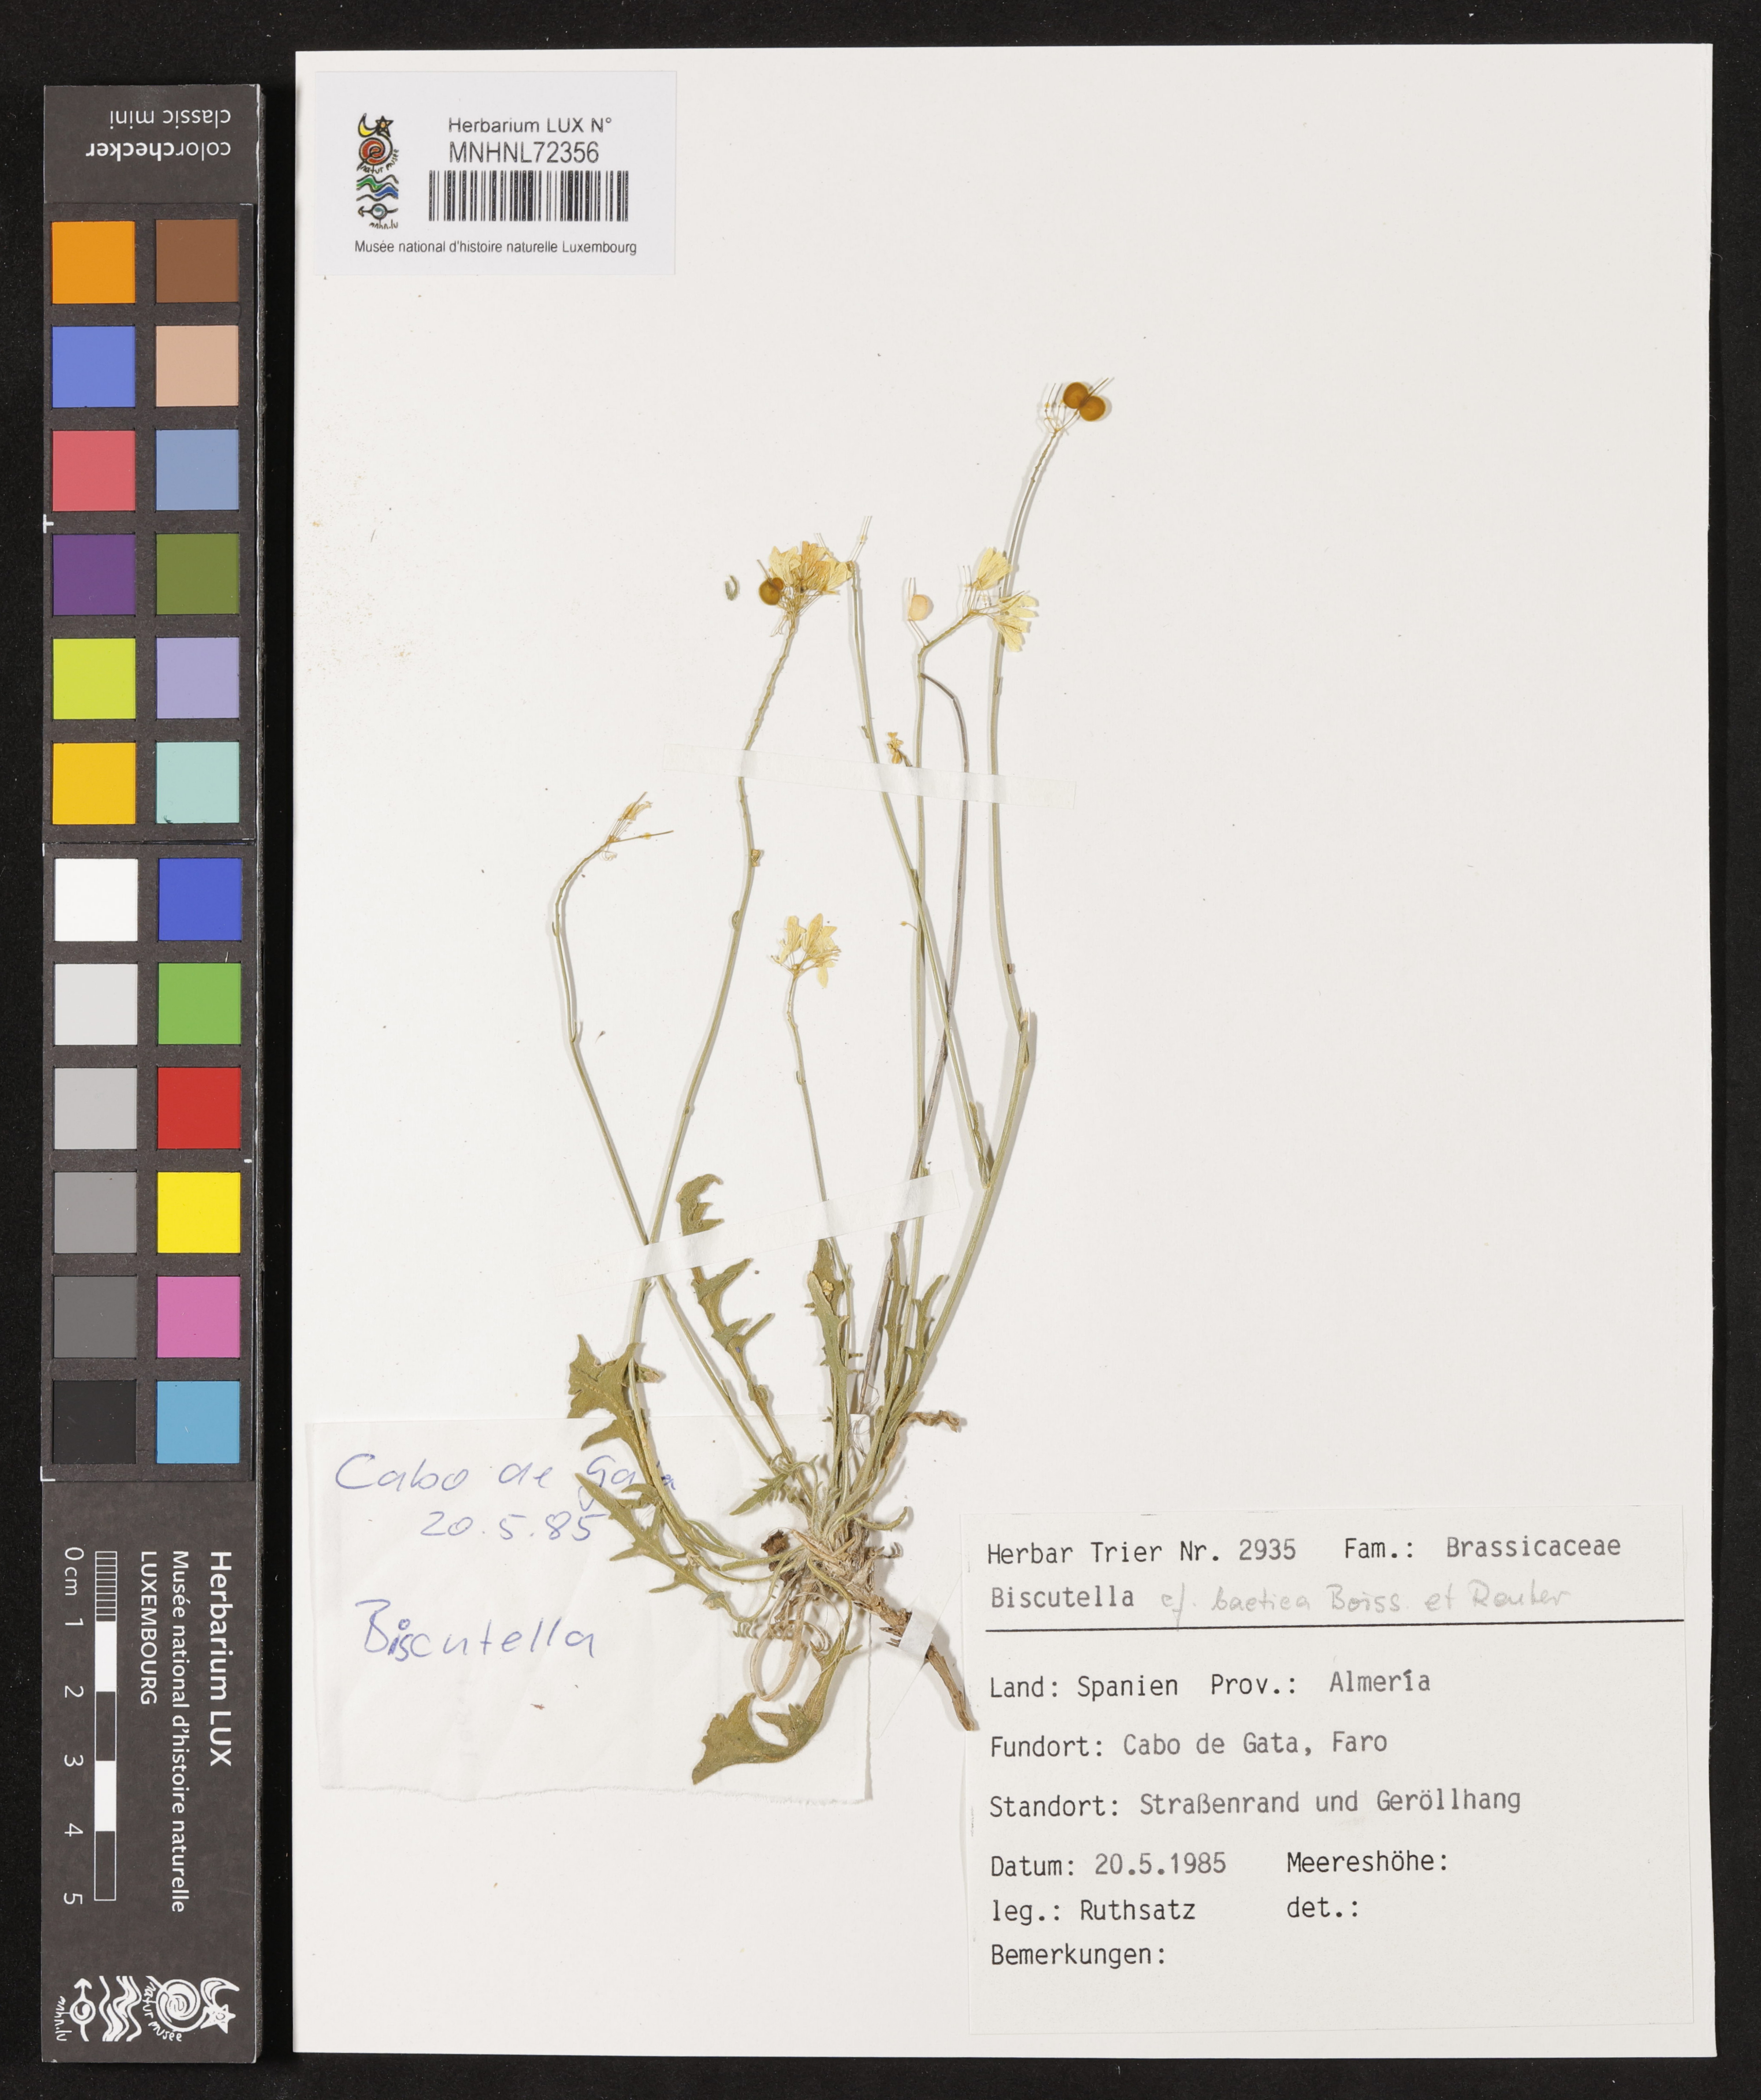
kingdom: Plantae
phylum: Tracheophyta
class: Magnoliopsida
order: Brassicales
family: Brassicaceae
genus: Biscutella
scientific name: Biscutella boetica
